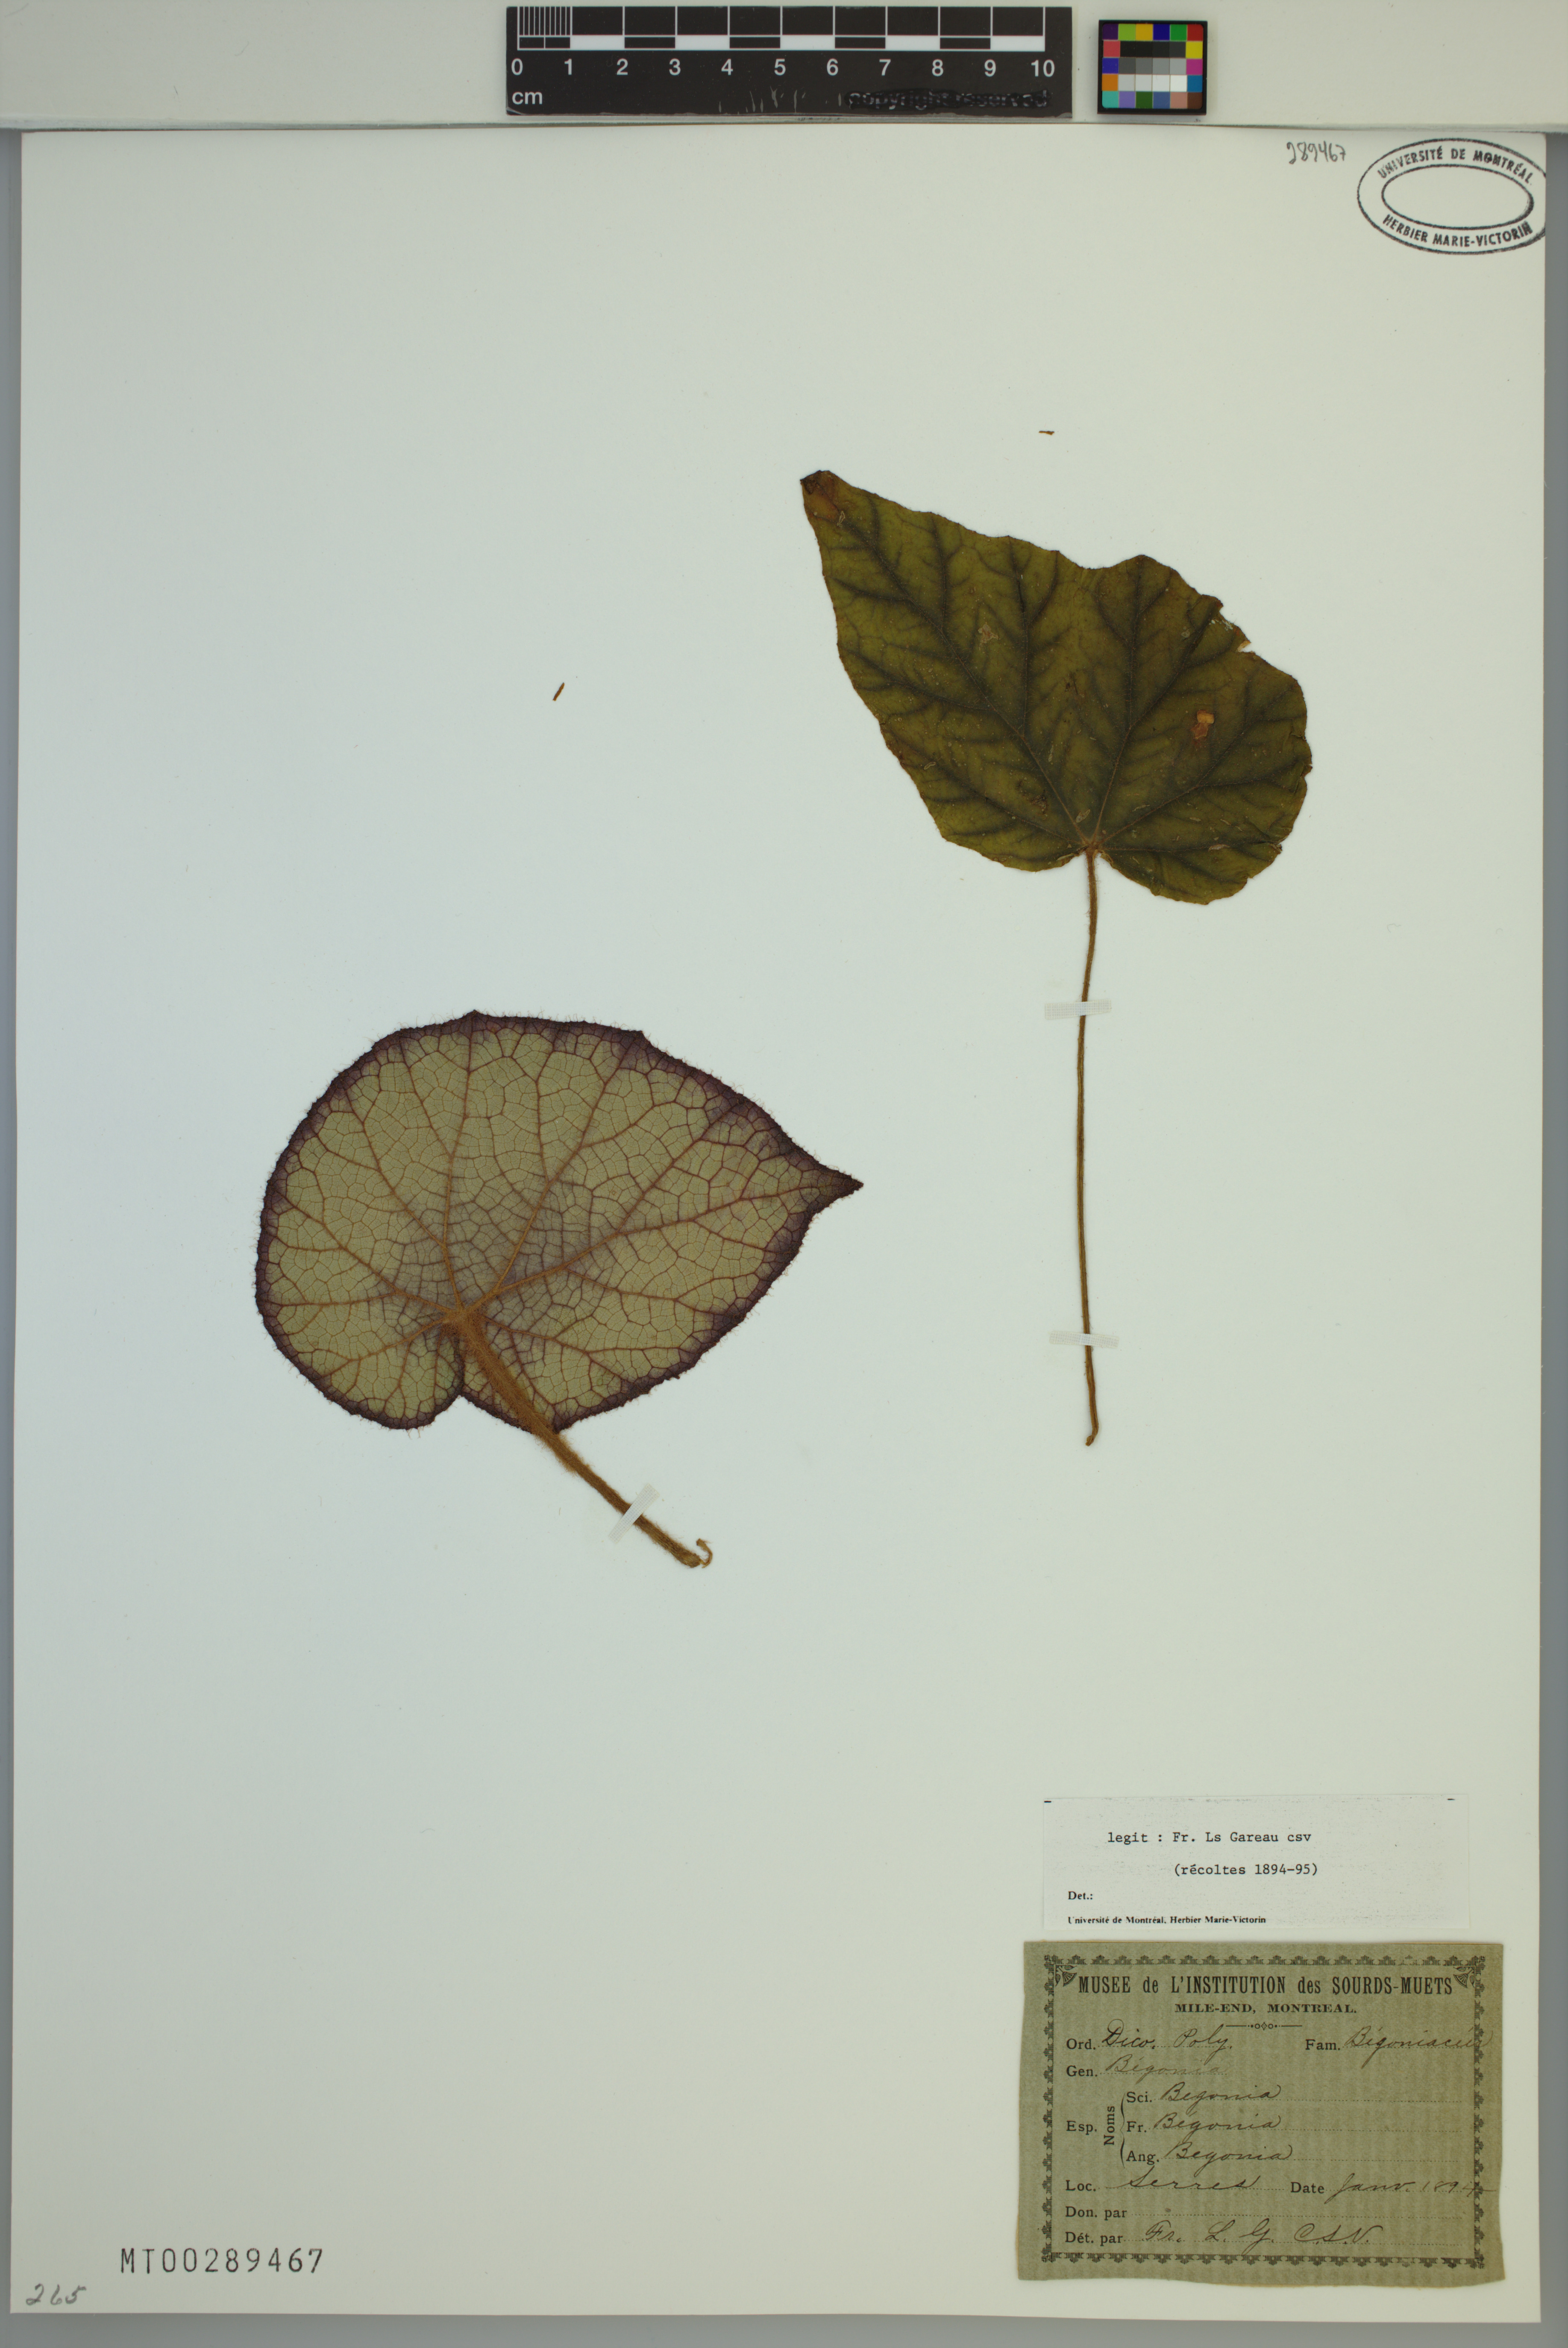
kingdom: Plantae
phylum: Tracheophyta
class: Magnoliopsida
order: Cucurbitales
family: Begoniaceae
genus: Begonia
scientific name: Begonia
